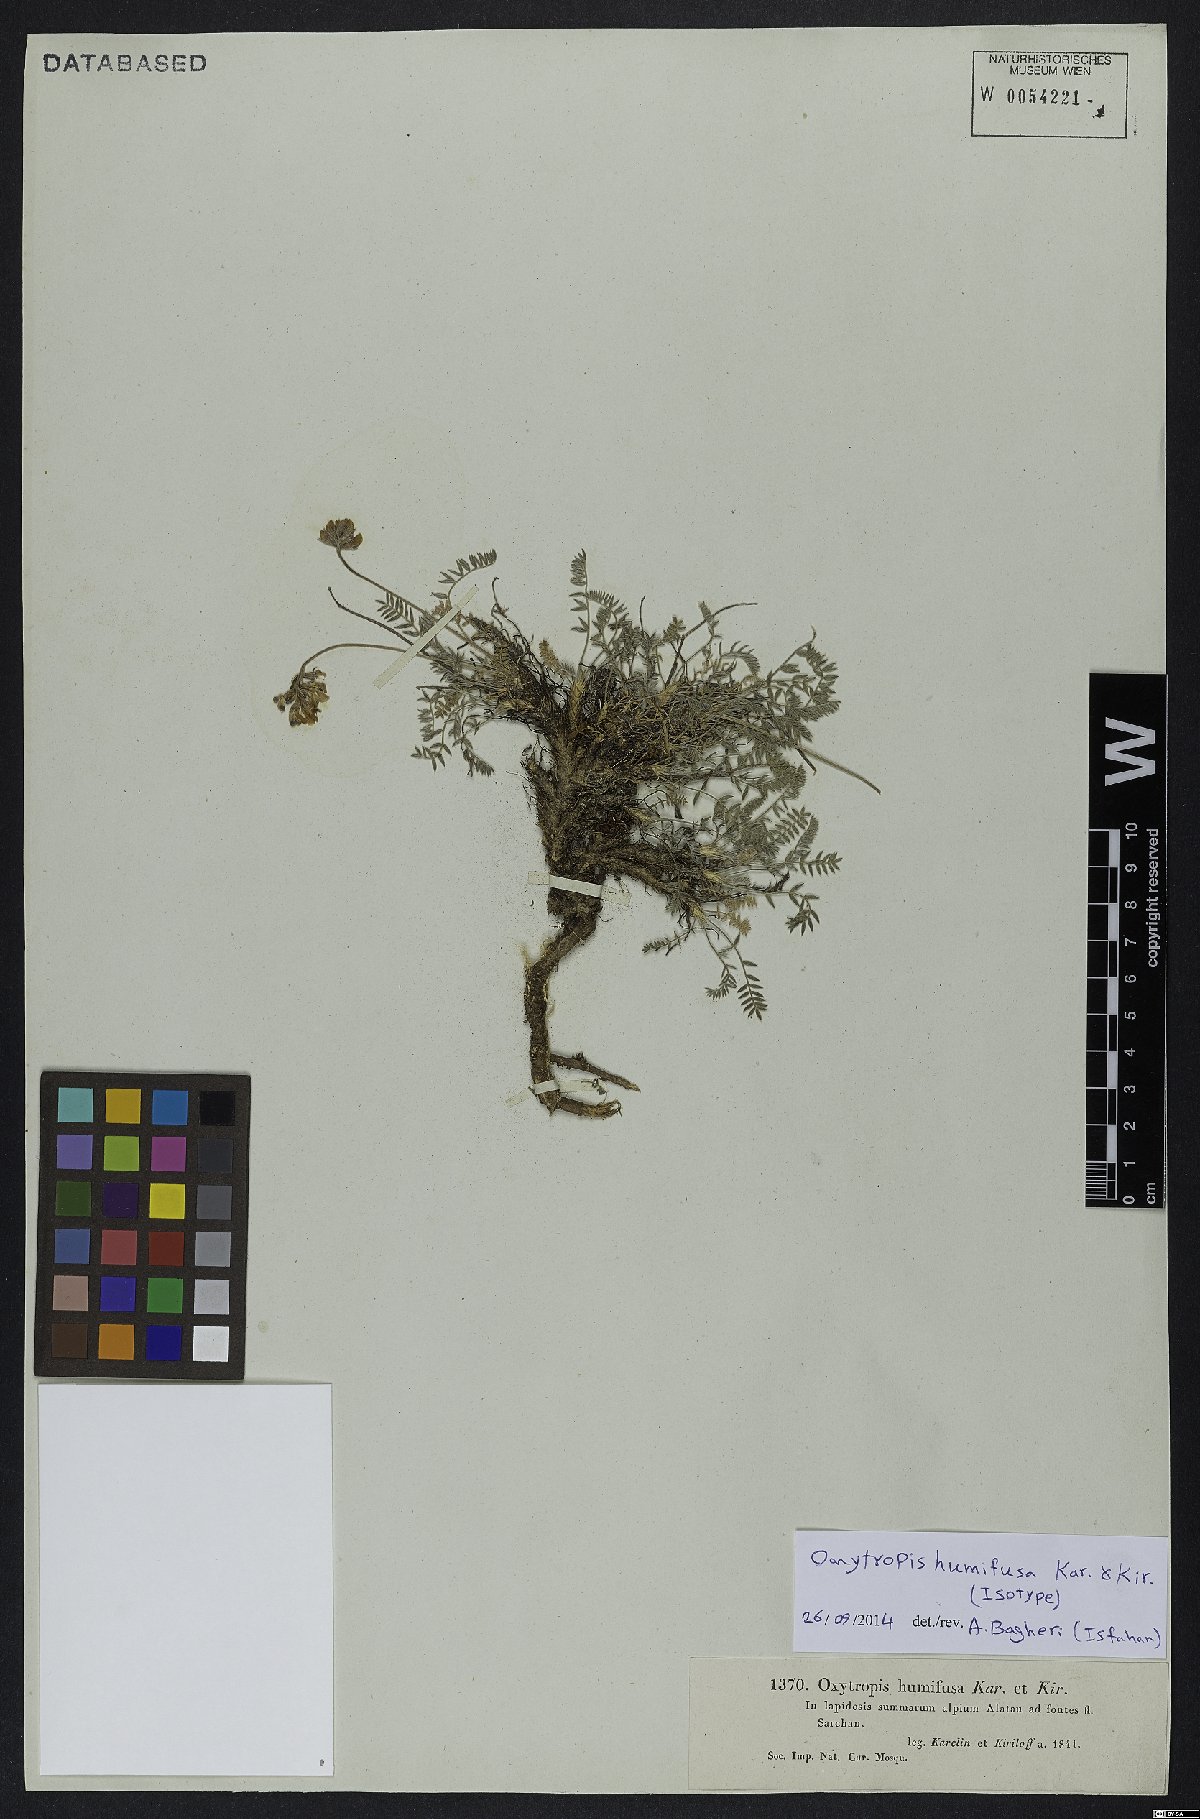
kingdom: Plantae
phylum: Tracheophyta
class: Magnoliopsida
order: Fabales
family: Fabaceae
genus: Oxytropis
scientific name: Oxytropis humifusa
